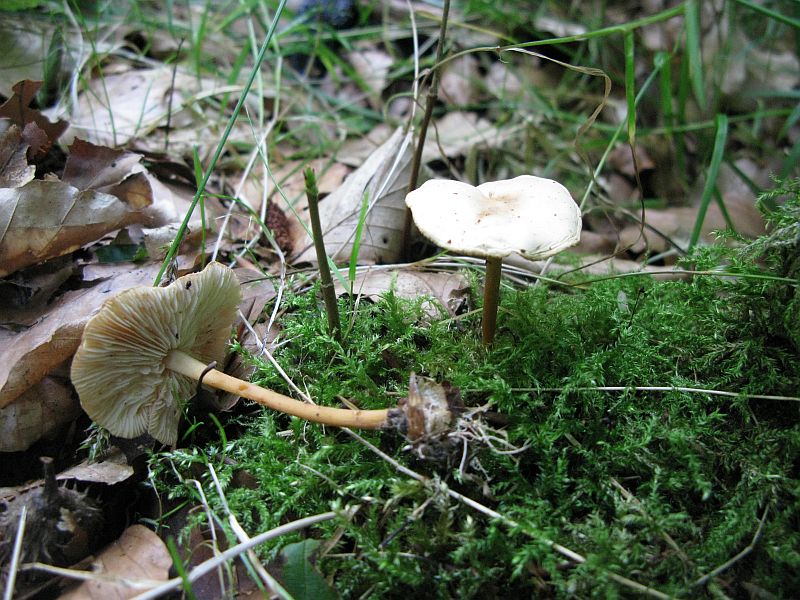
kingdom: Fungi
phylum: Basidiomycota
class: Agaricomycetes
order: Agaricales
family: Omphalotaceae
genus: Gymnopus
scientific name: Gymnopus dryophilus
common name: løv-fladhat
